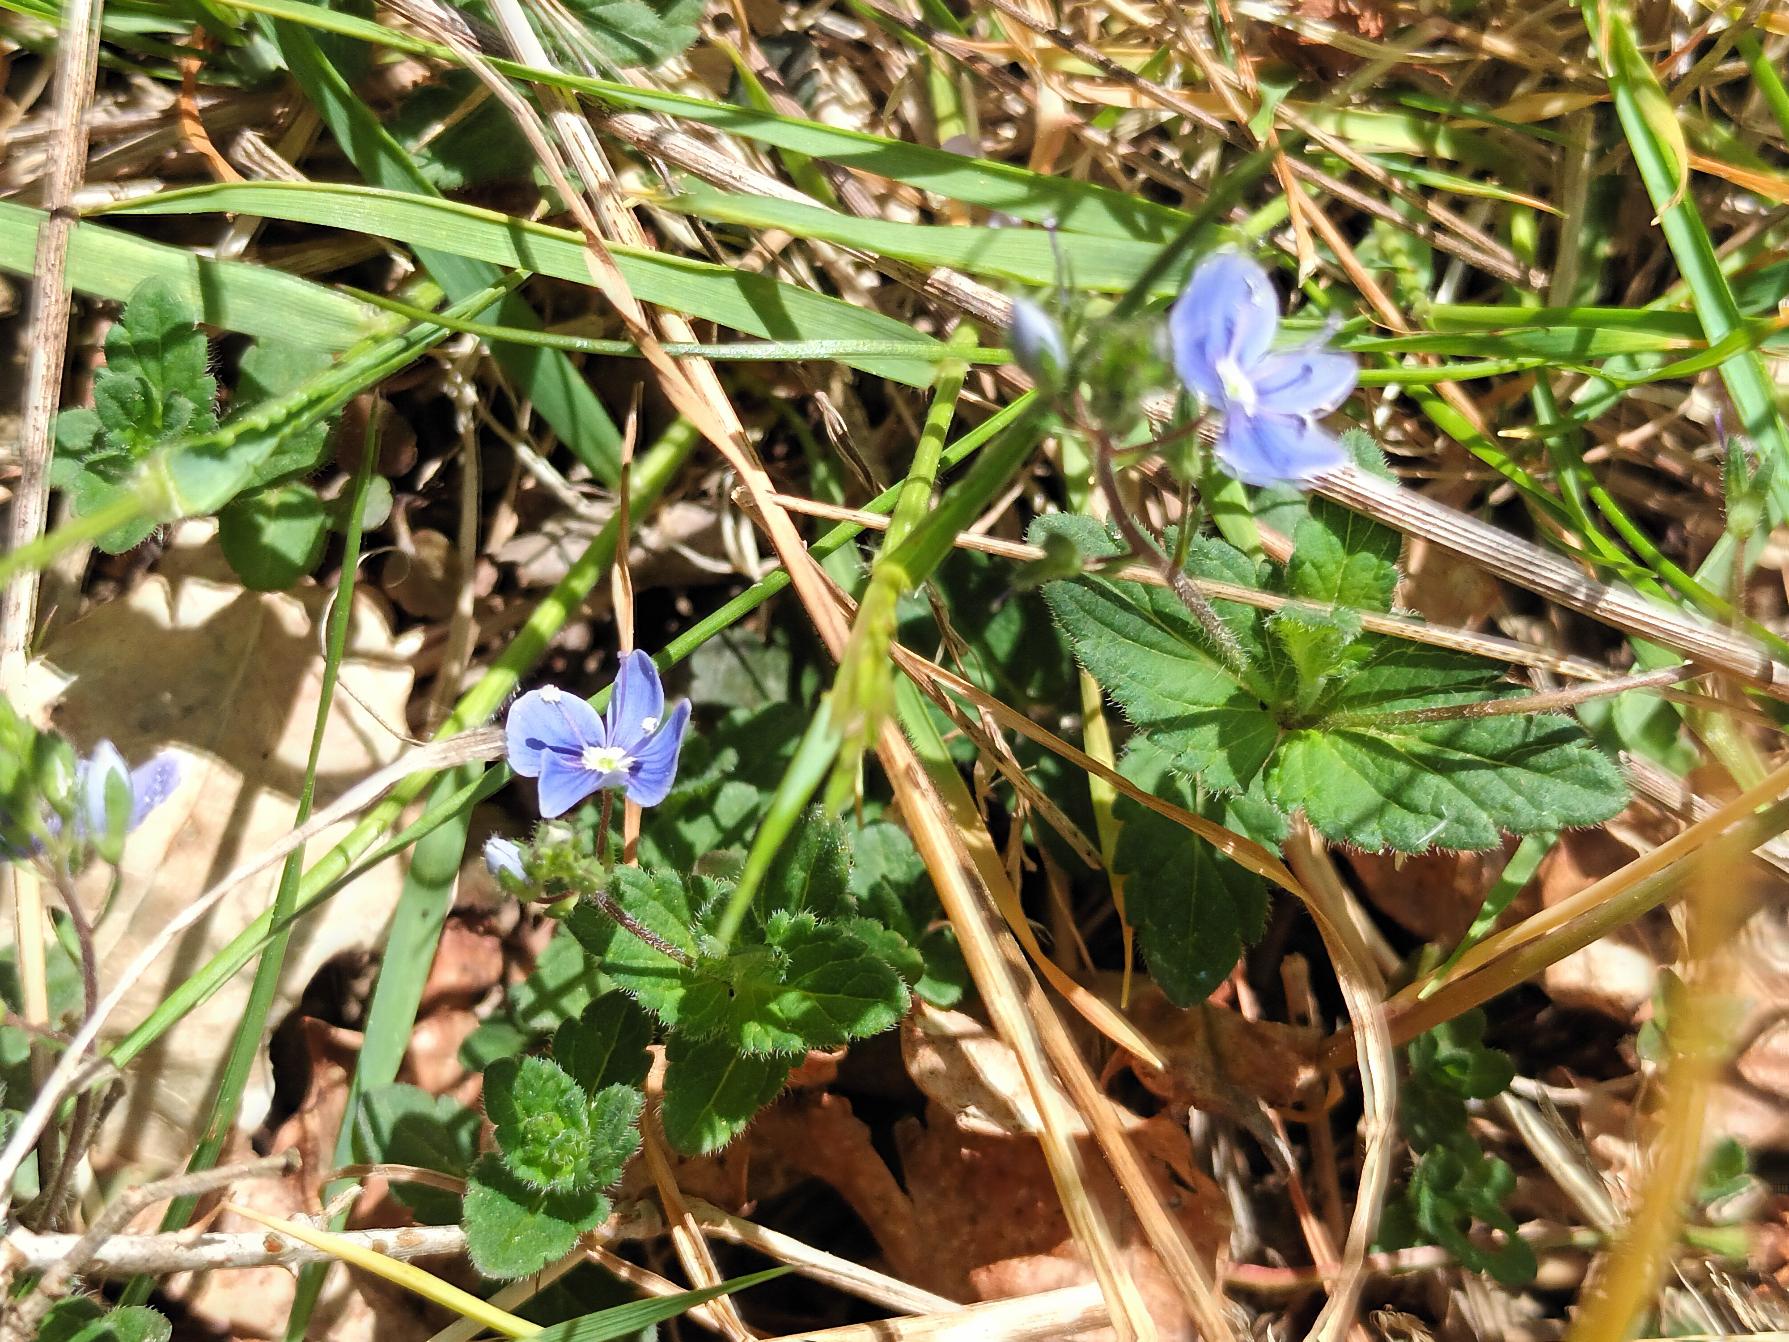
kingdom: Plantae
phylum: Tracheophyta
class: Magnoliopsida
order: Lamiales
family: Plantaginaceae
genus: Veronica
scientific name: Veronica chamaedrys
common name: Tveskægget ærenpris
